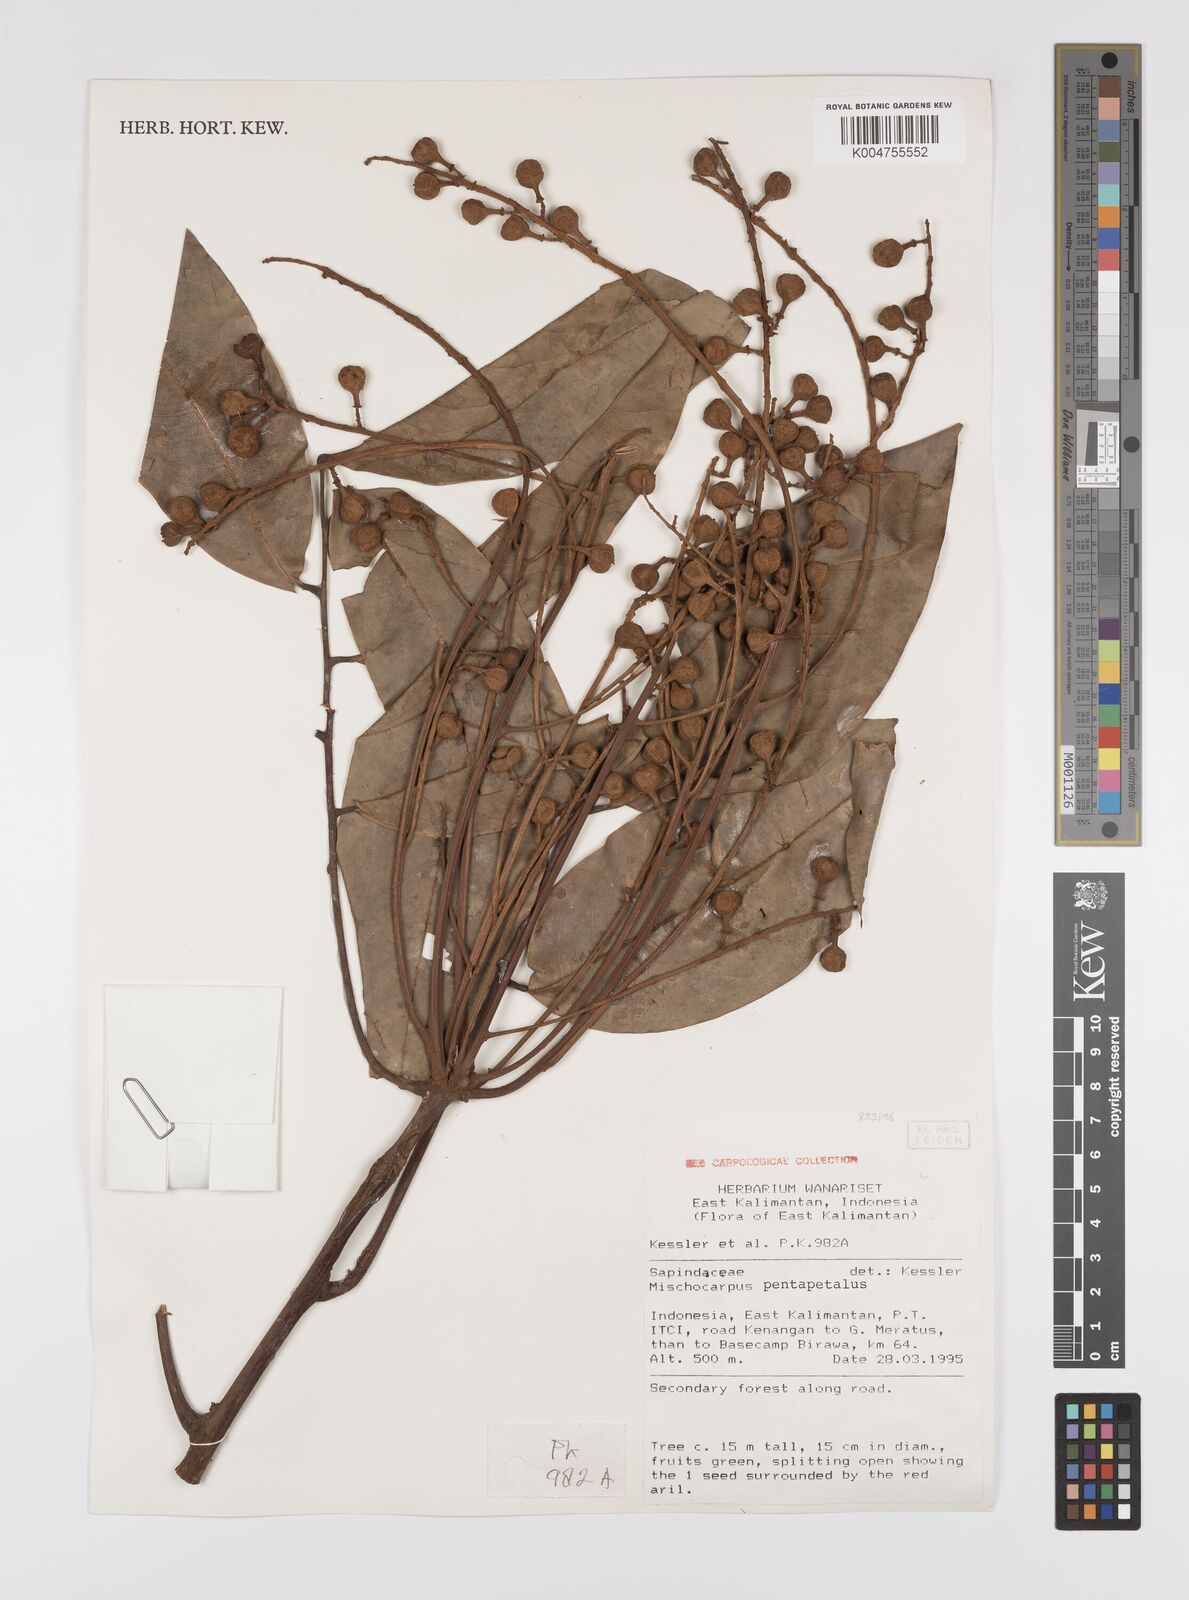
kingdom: Plantae
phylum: Tracheophyta
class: Magnoliopsida
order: Sapindales
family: Sapindaceae
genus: Mischocarpus
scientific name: Mischocarpus pentapetalus
